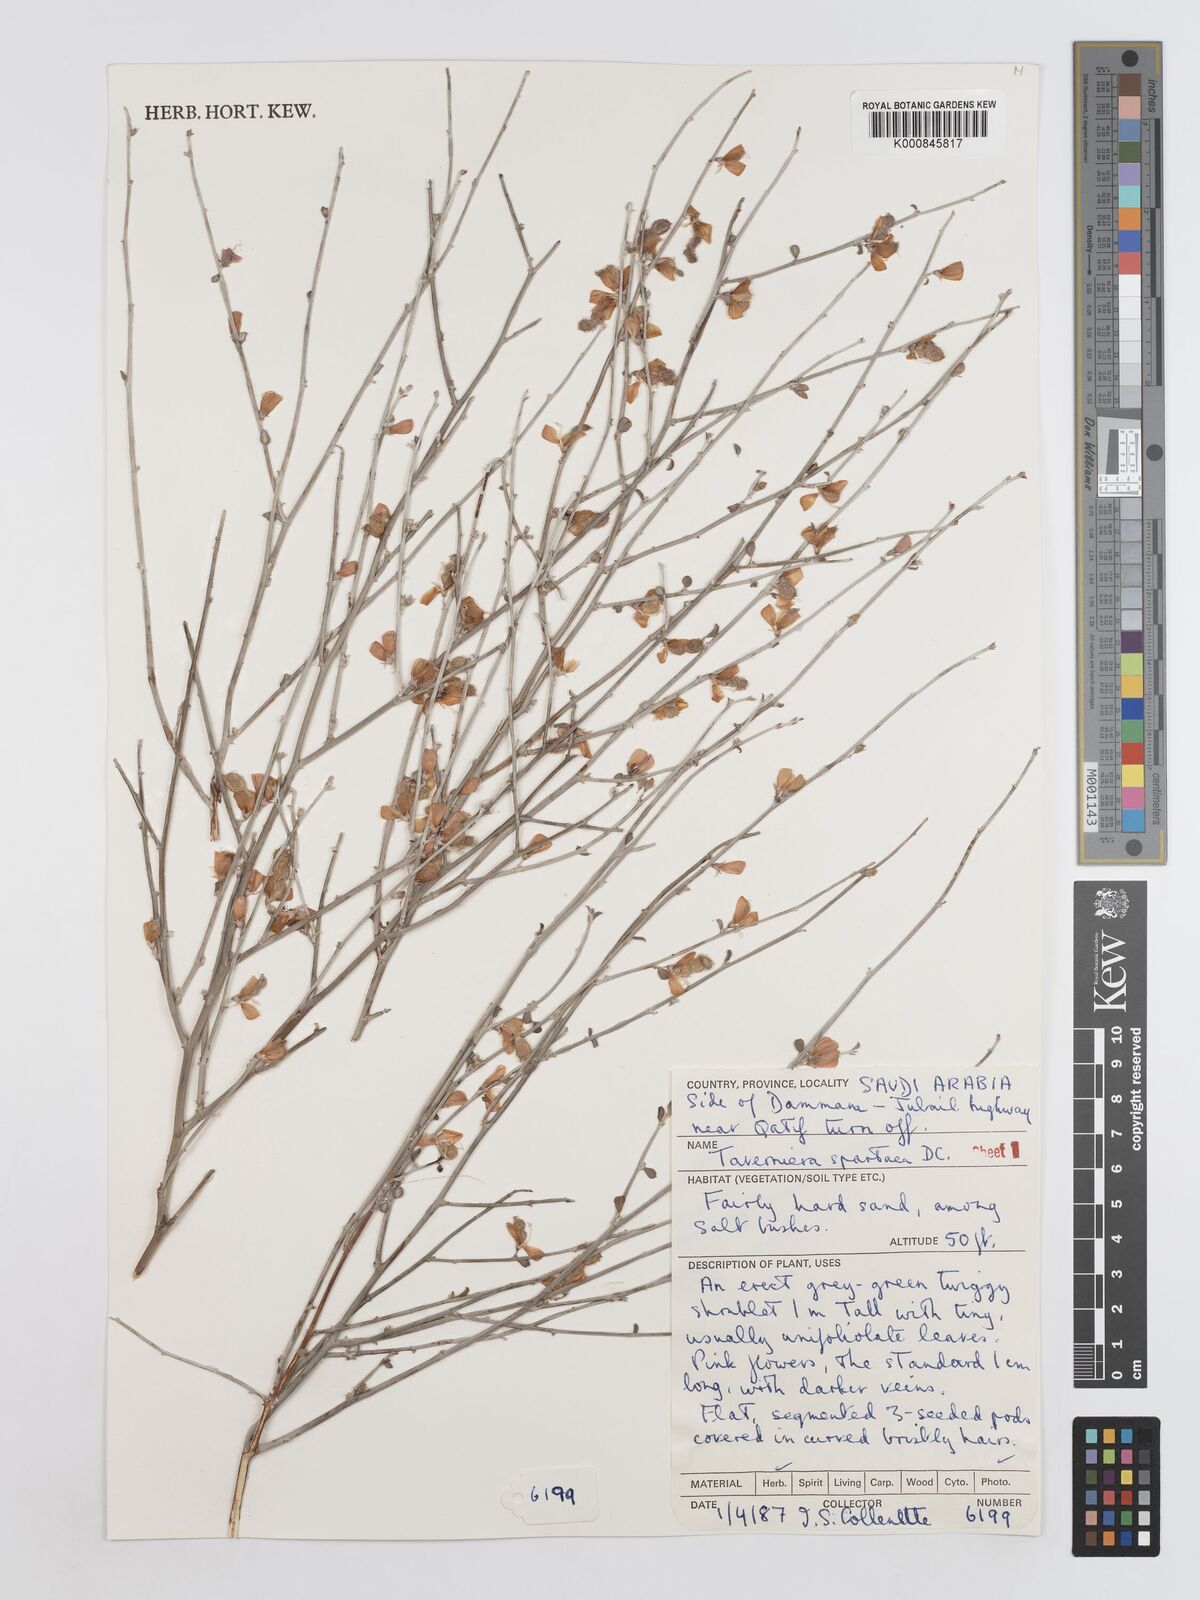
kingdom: Plantae
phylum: Tracheophyta
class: Magnoliopsida
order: Fabales
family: Fabaceae
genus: Taverniera
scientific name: Taverniera spartea
